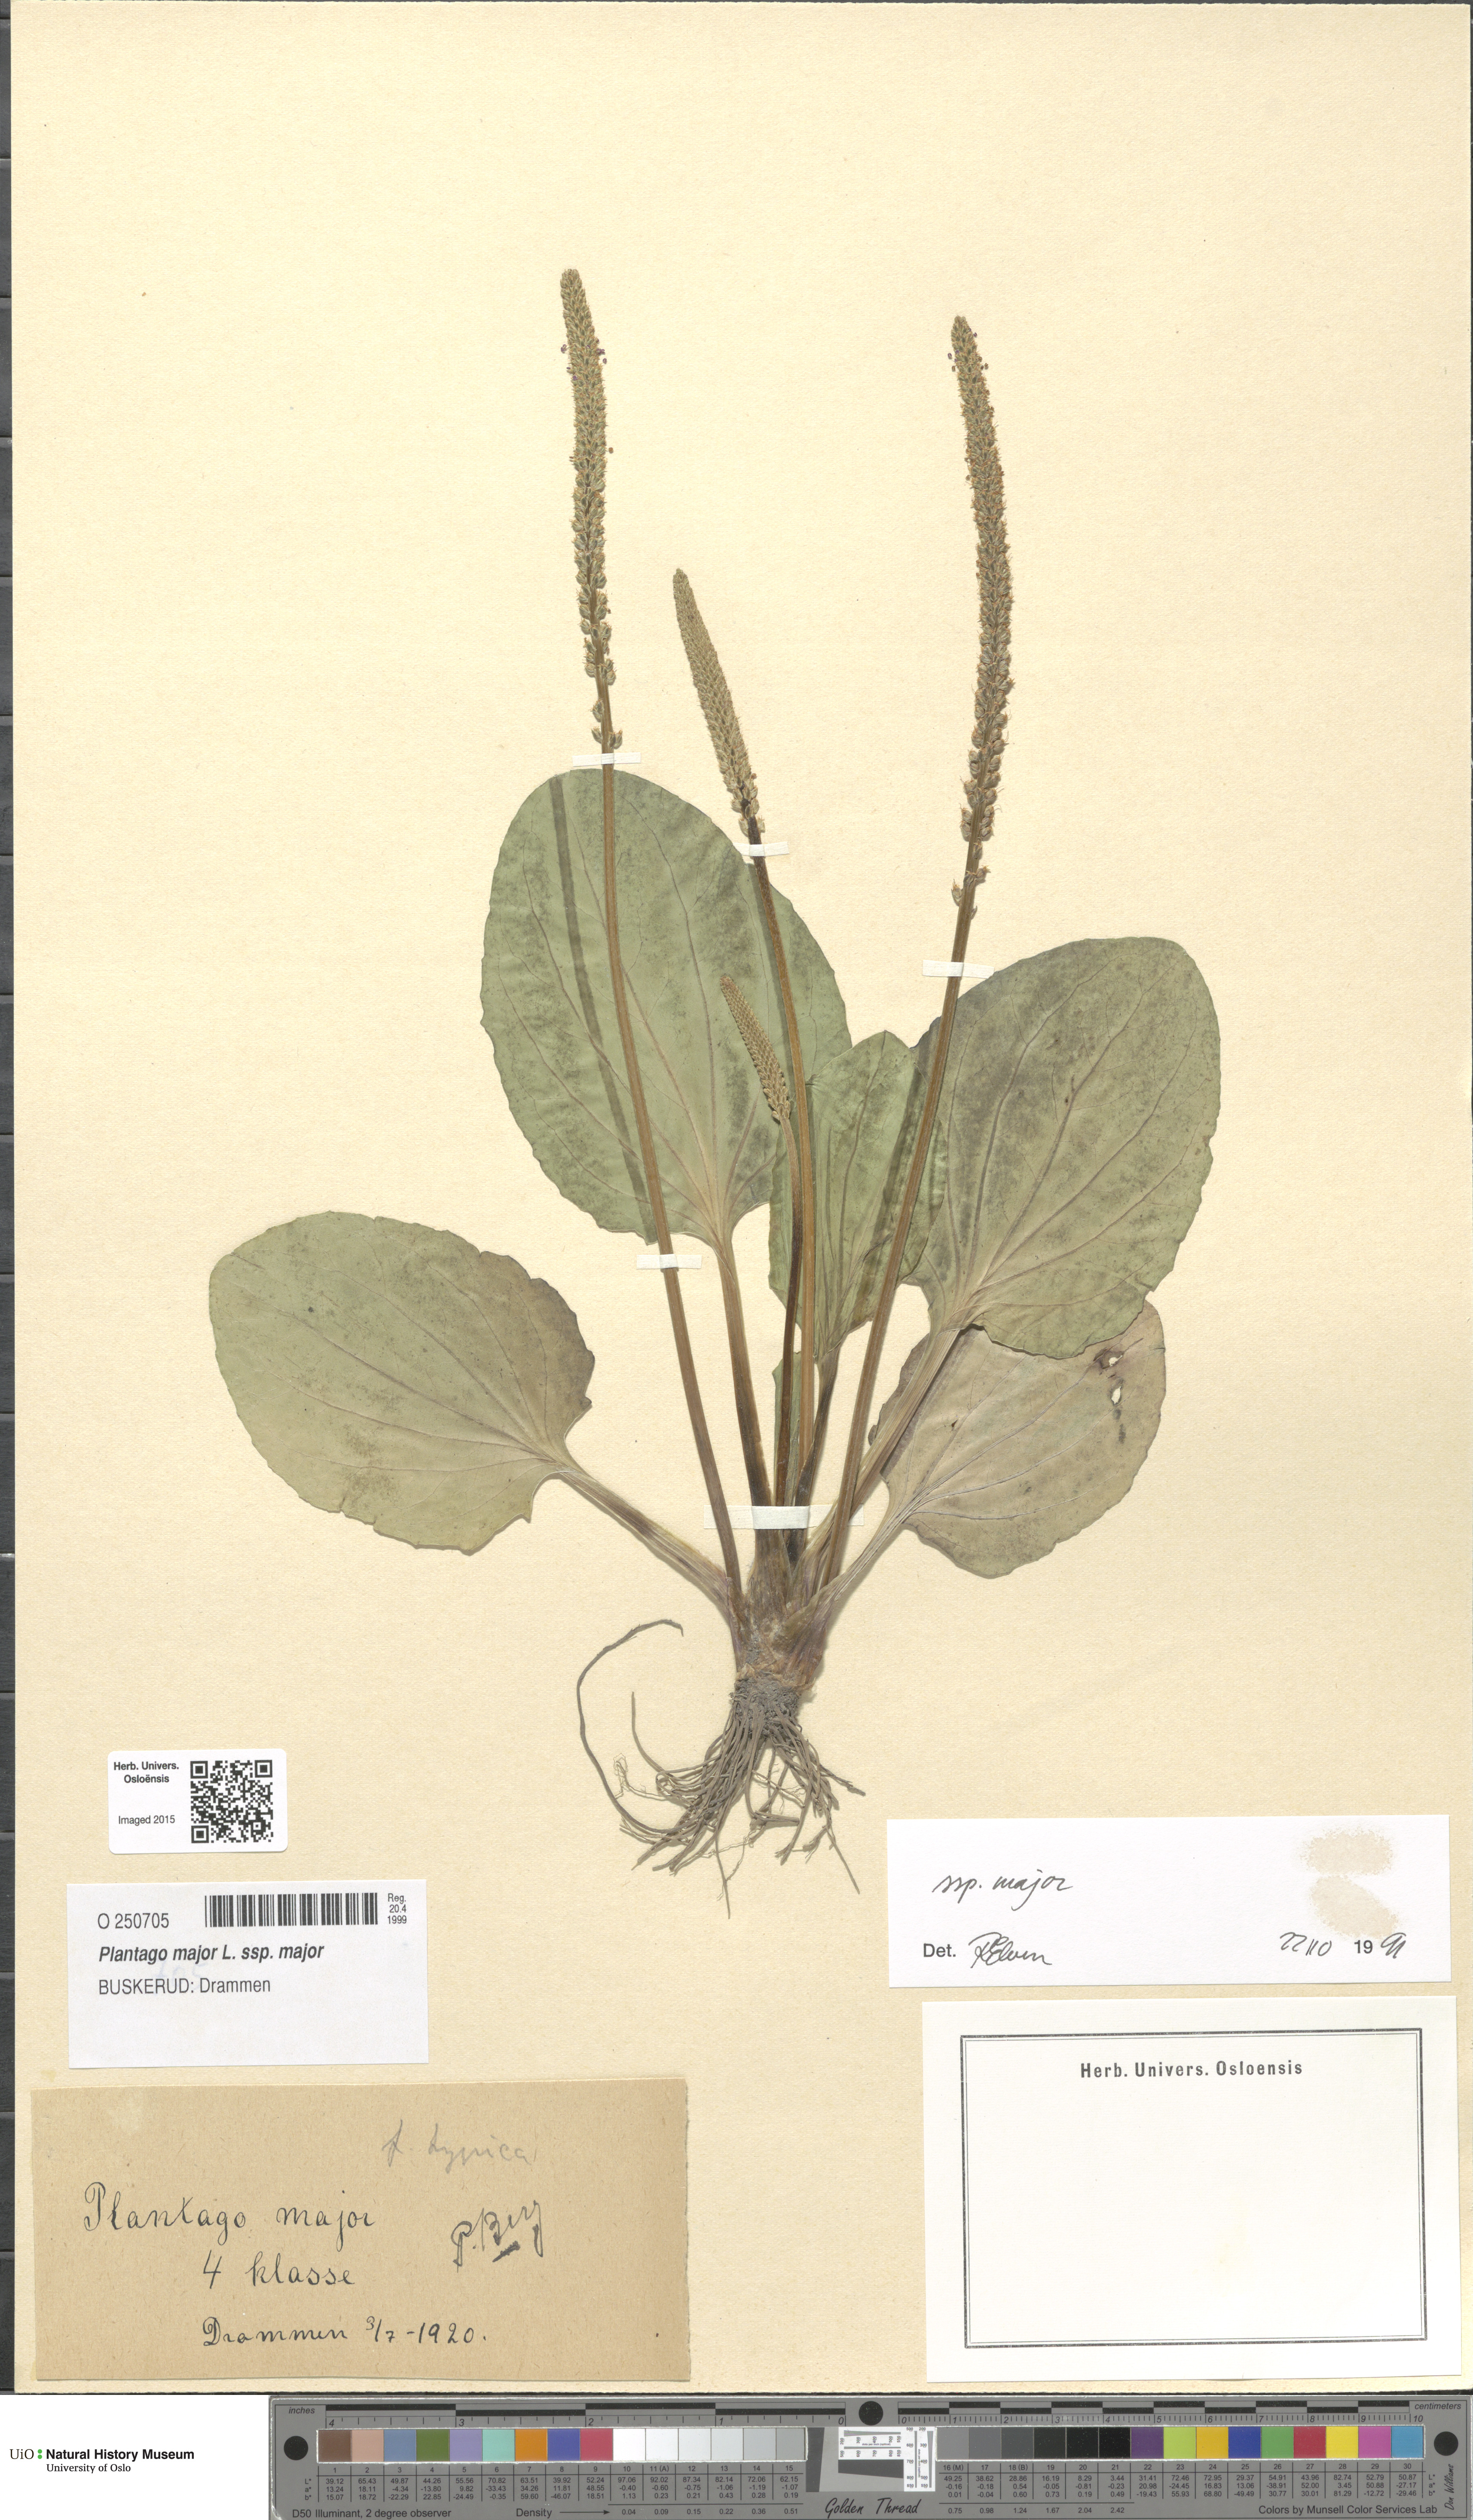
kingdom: Plantae
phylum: Tracheophyta
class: Magnoliopsida
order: Lamiales
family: Plantaginaceae
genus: Plantago
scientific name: Plantago major
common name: Common plantain
